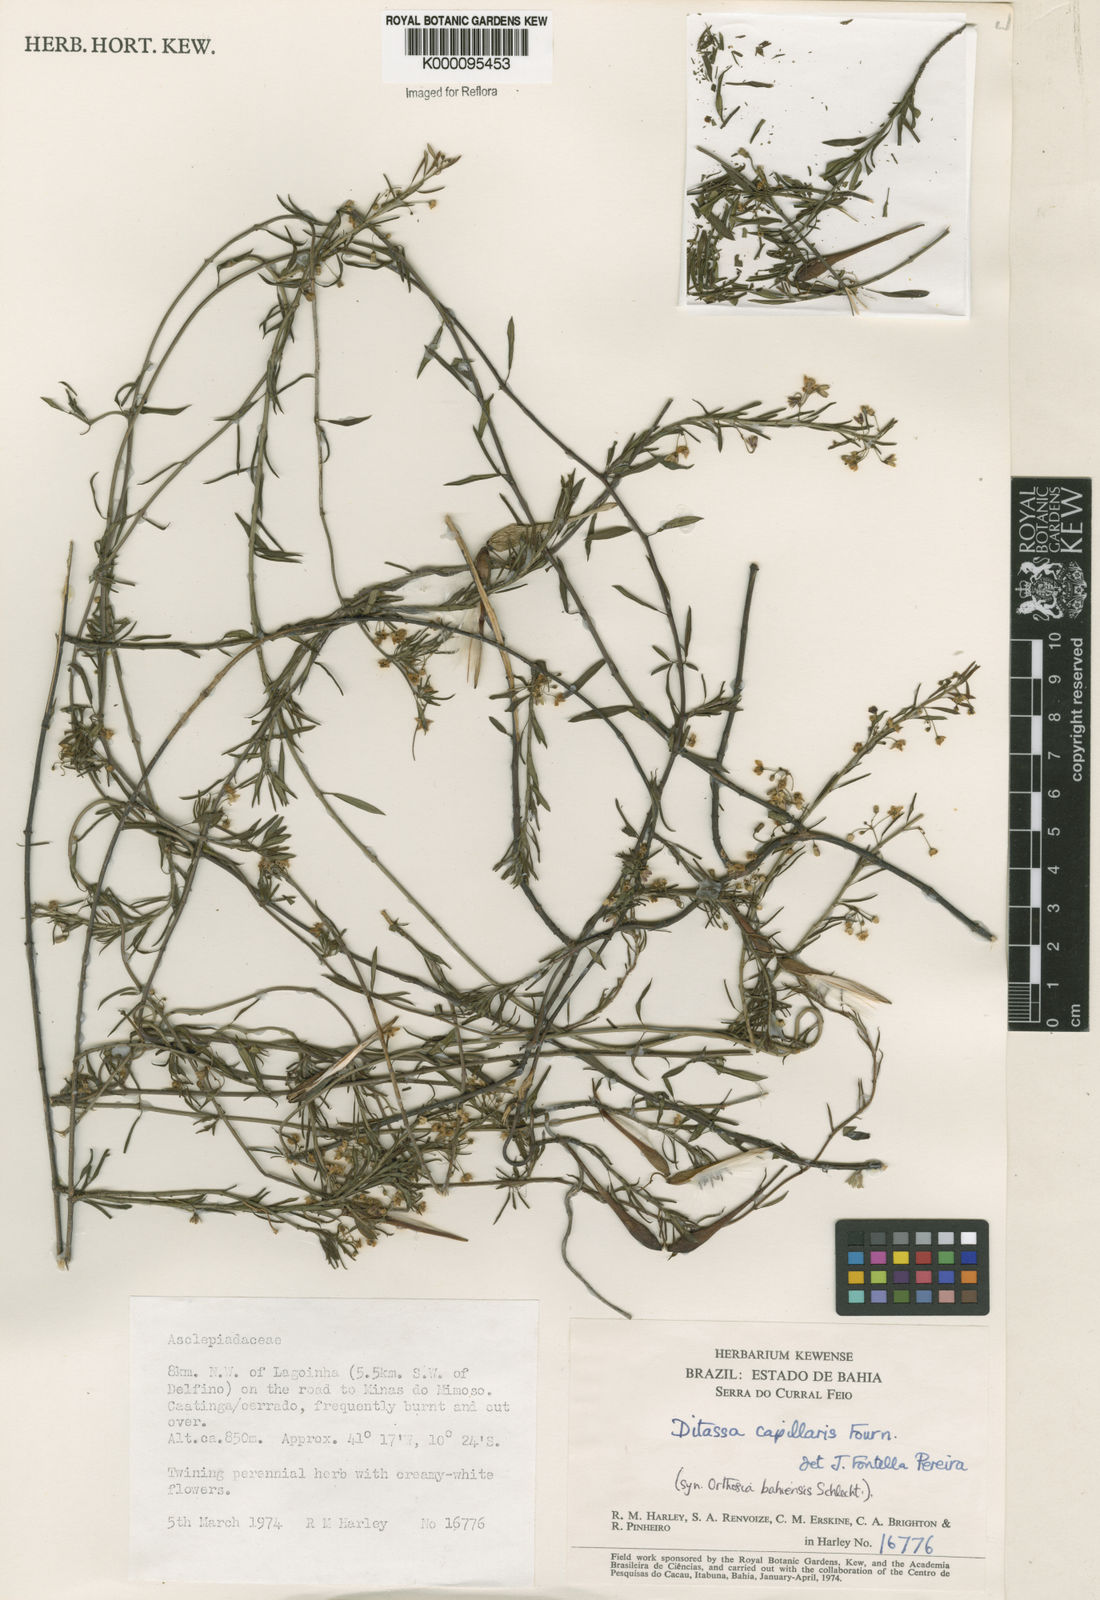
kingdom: Plantae
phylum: Tracheophyta
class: Magnoliopsida
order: Gentianales
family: Apocynaceae
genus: Ditassa
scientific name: Ditassa capillaris
